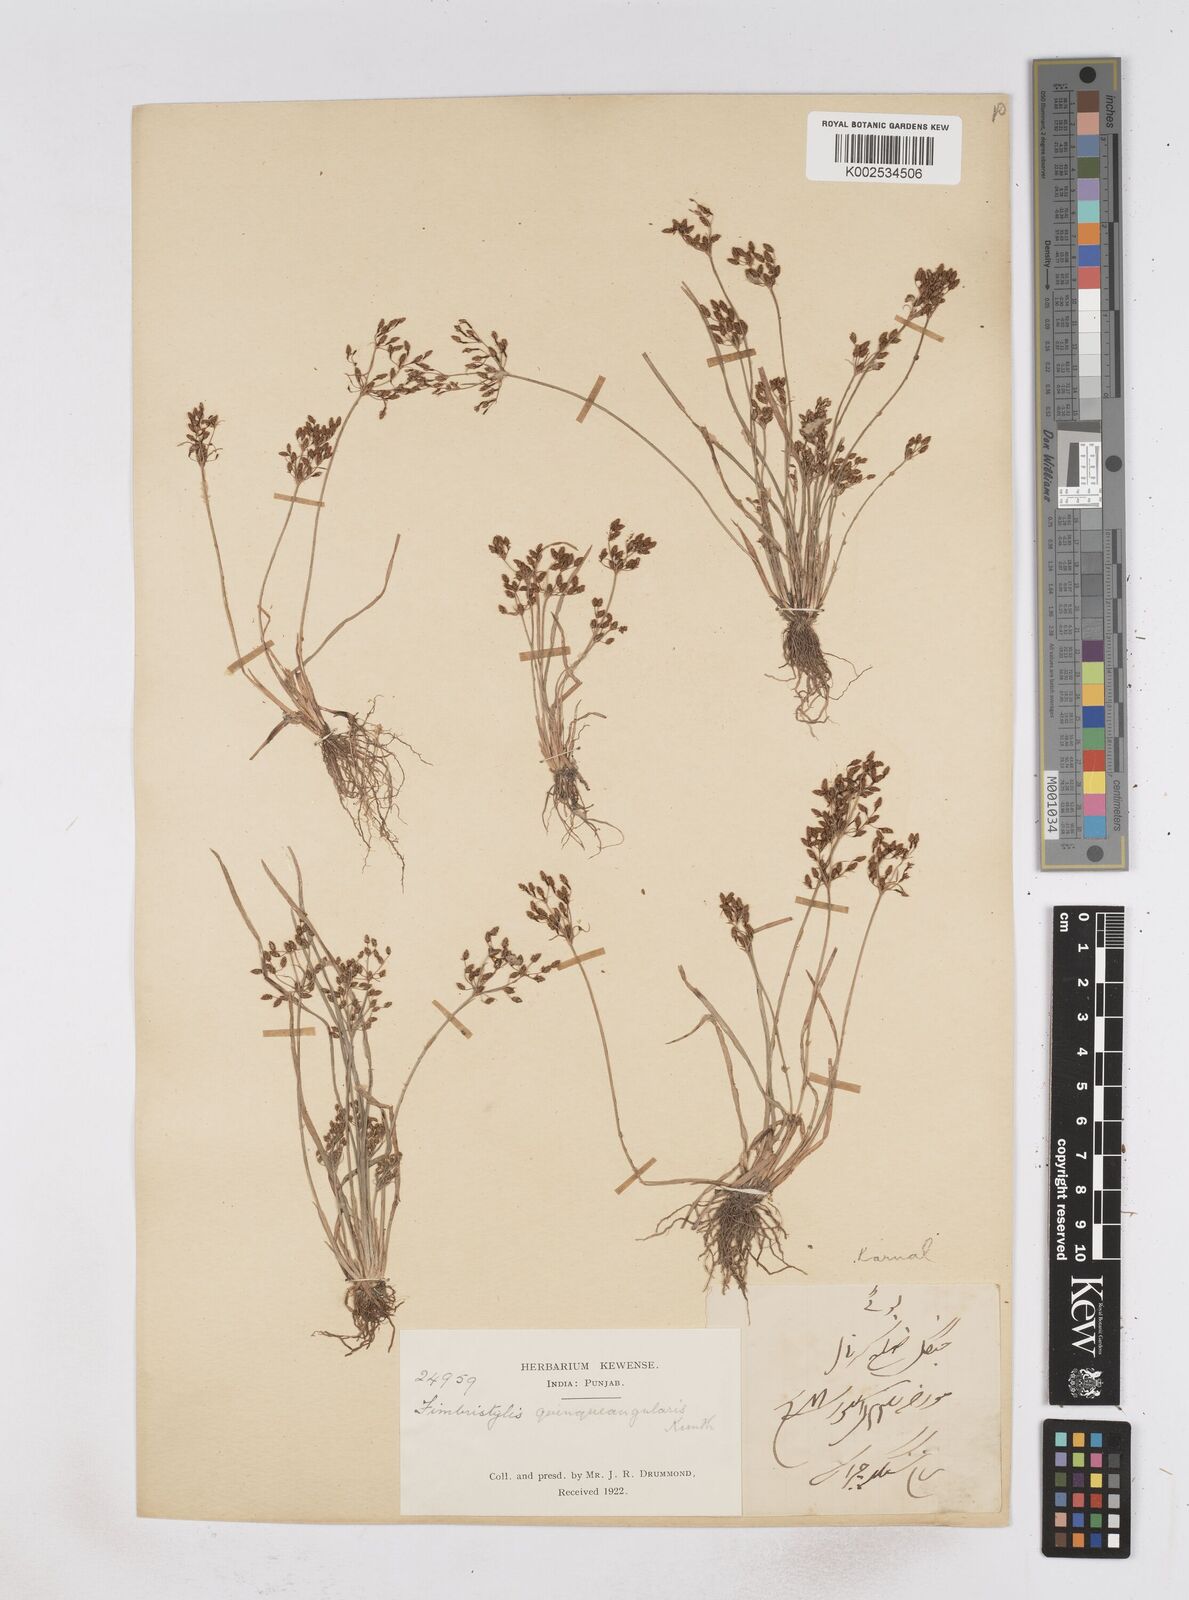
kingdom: Plantae
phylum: Tracheophyta
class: Liliopsida
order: Poales
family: Cyperaceae
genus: Fimbristylis
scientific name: Fimbristylis quinquangularis
